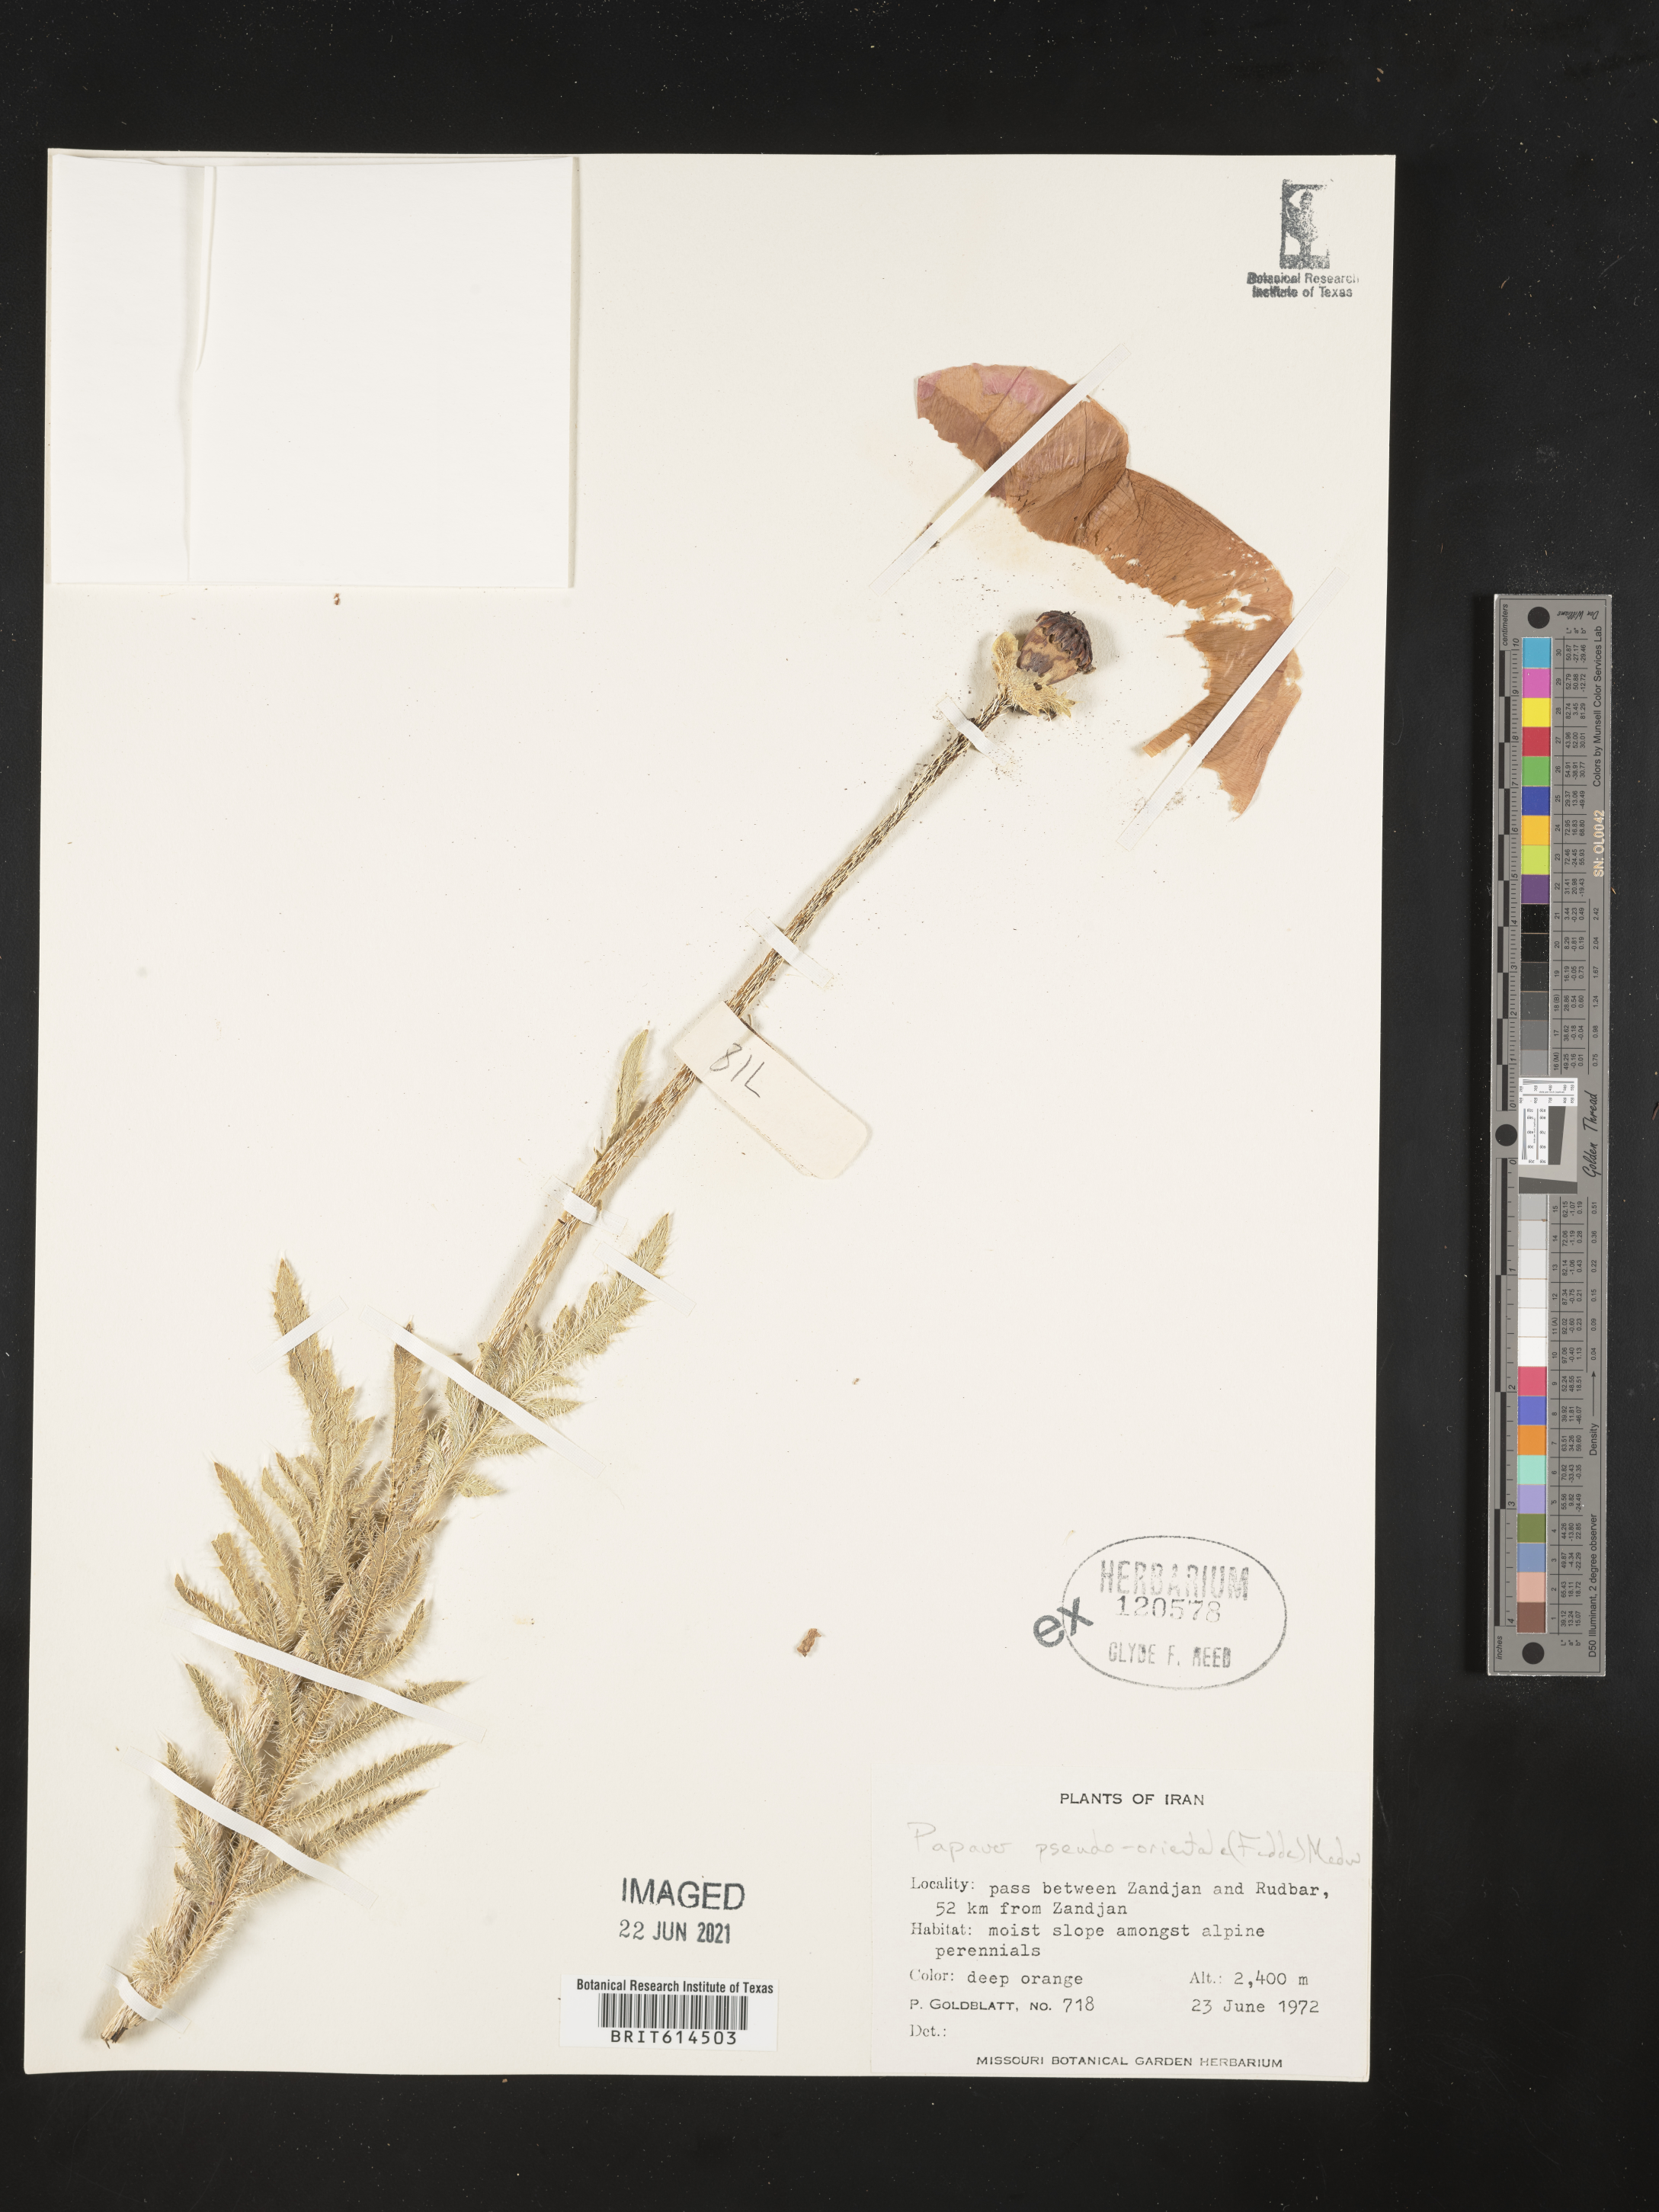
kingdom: Plantae
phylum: Tracheophyta
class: Magnoliopsida
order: Ranunculales
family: Papaveraceae
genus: Papaver
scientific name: Papaver setiferum
